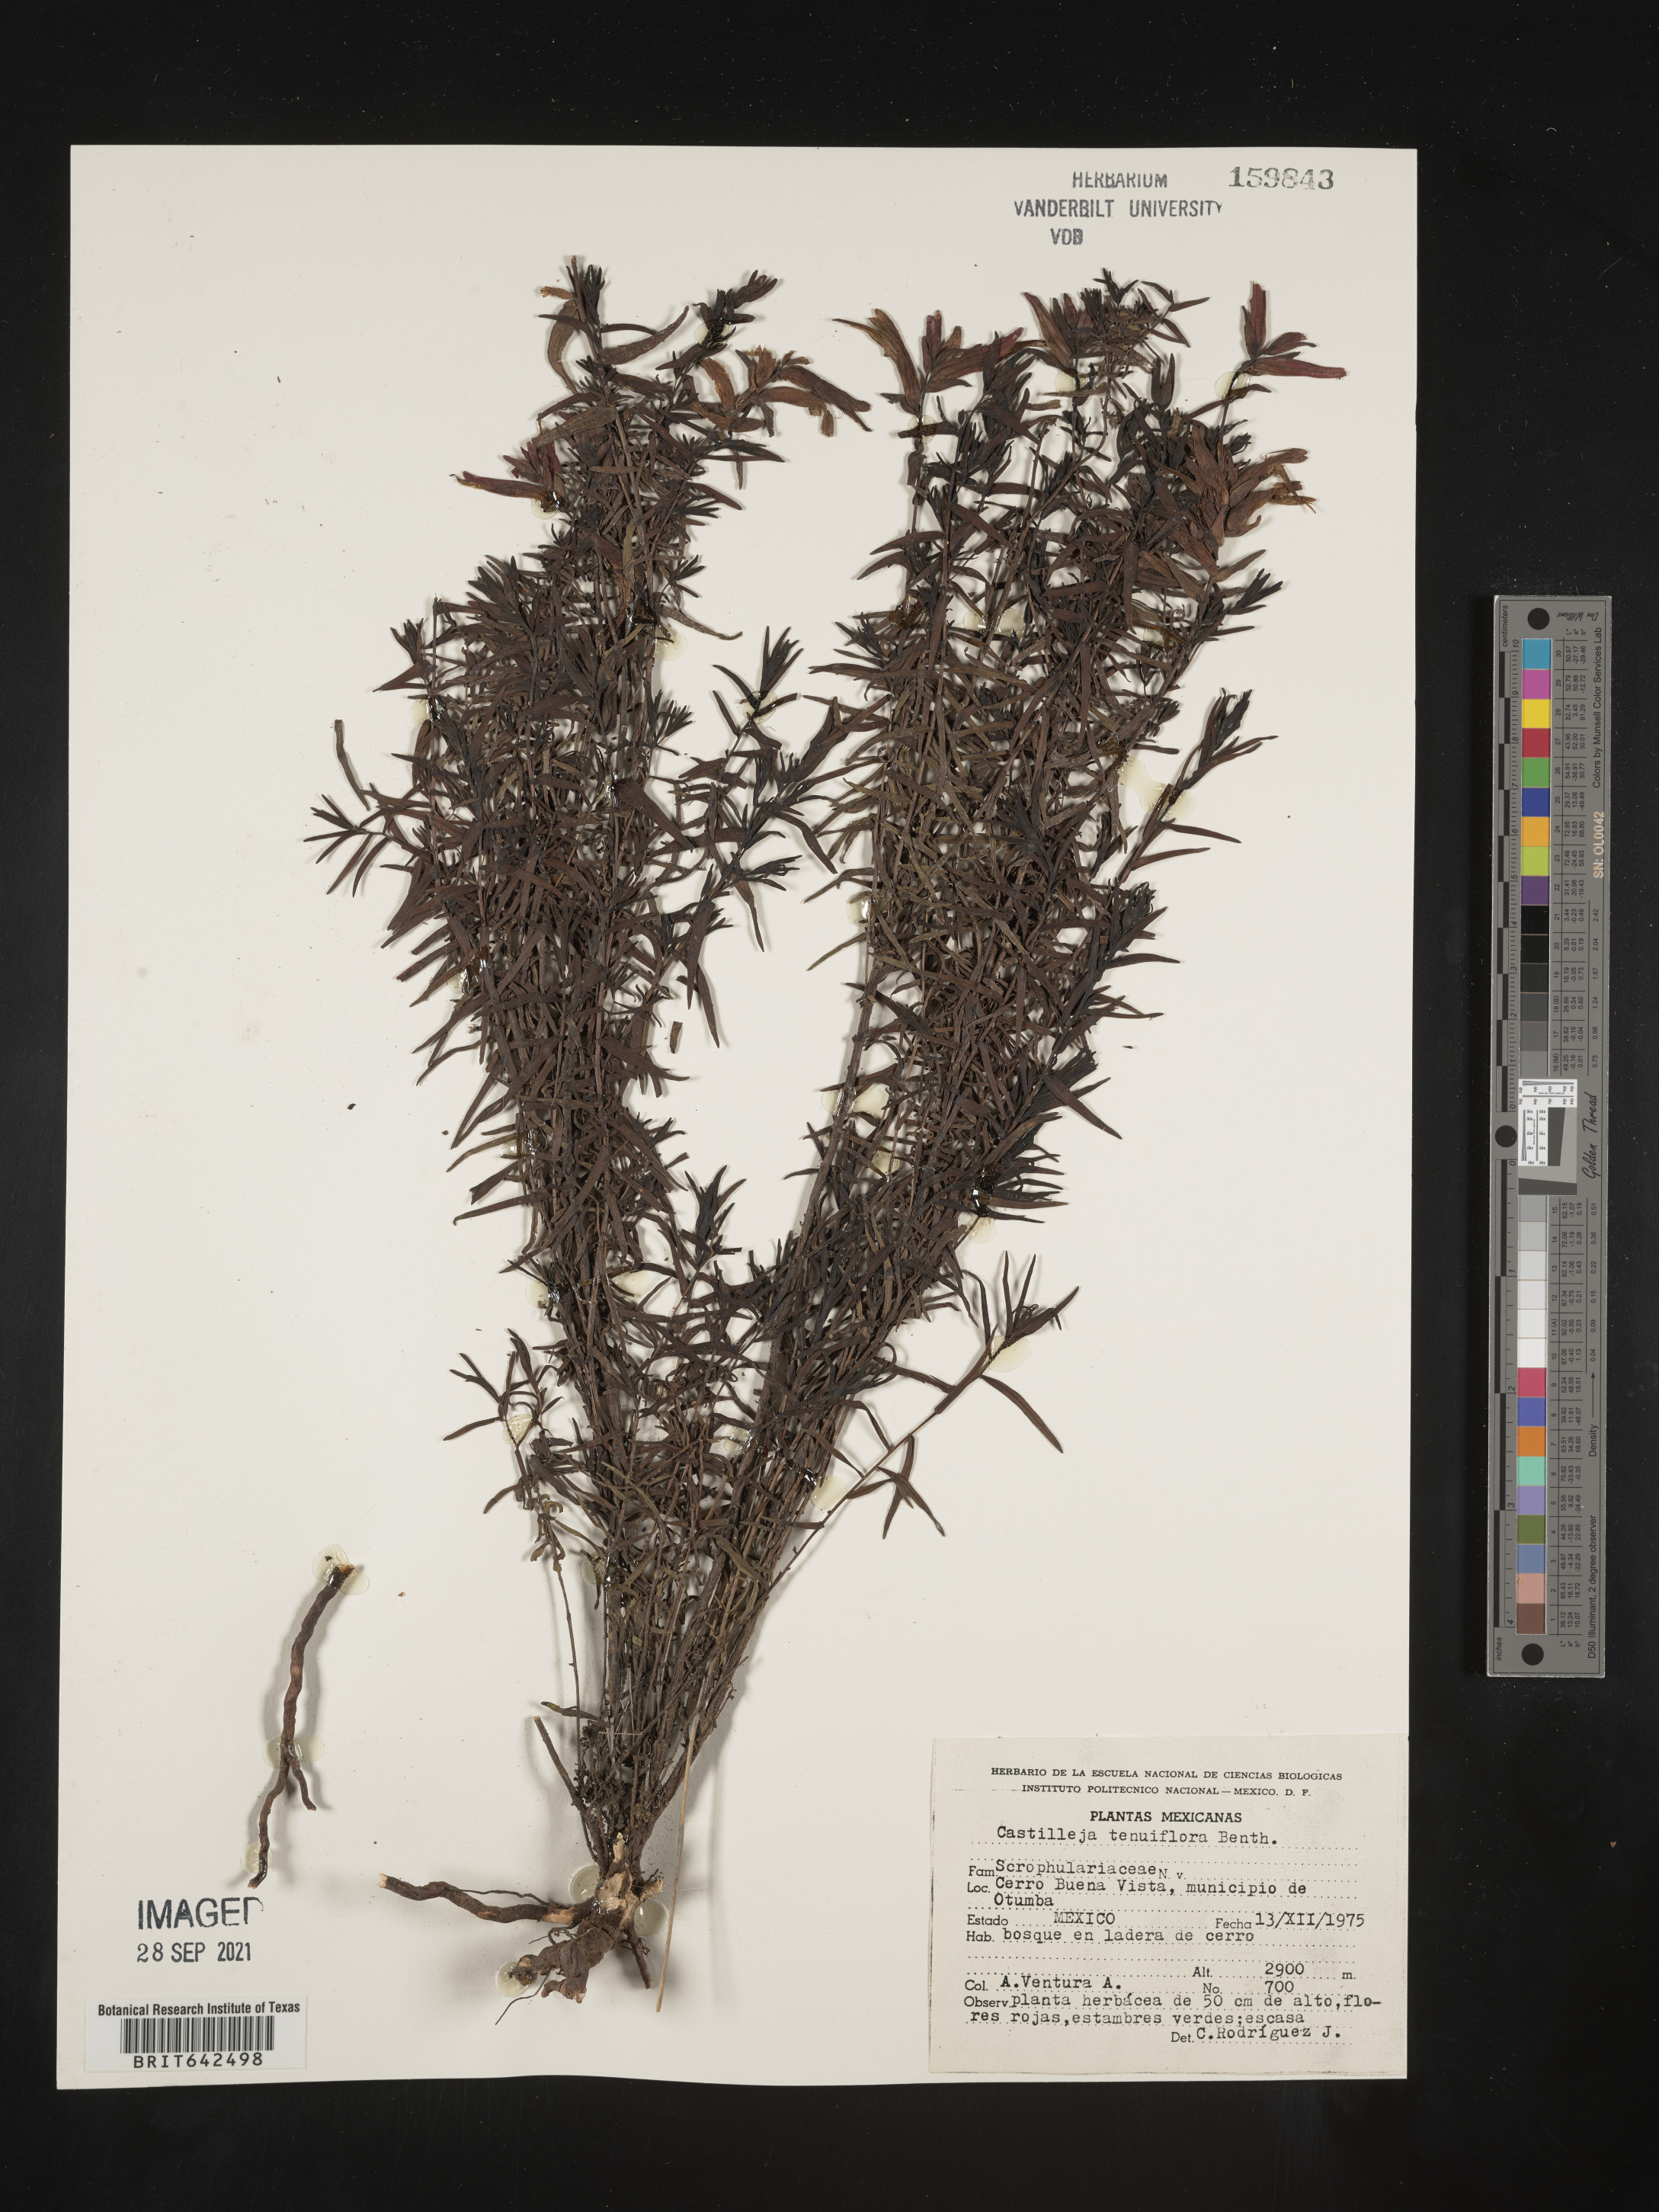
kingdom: Plantae
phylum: Tracheophyta
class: Magnoliopsida
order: Lamiales
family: Orobanchaceae
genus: Castilleja
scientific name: Castilleja
